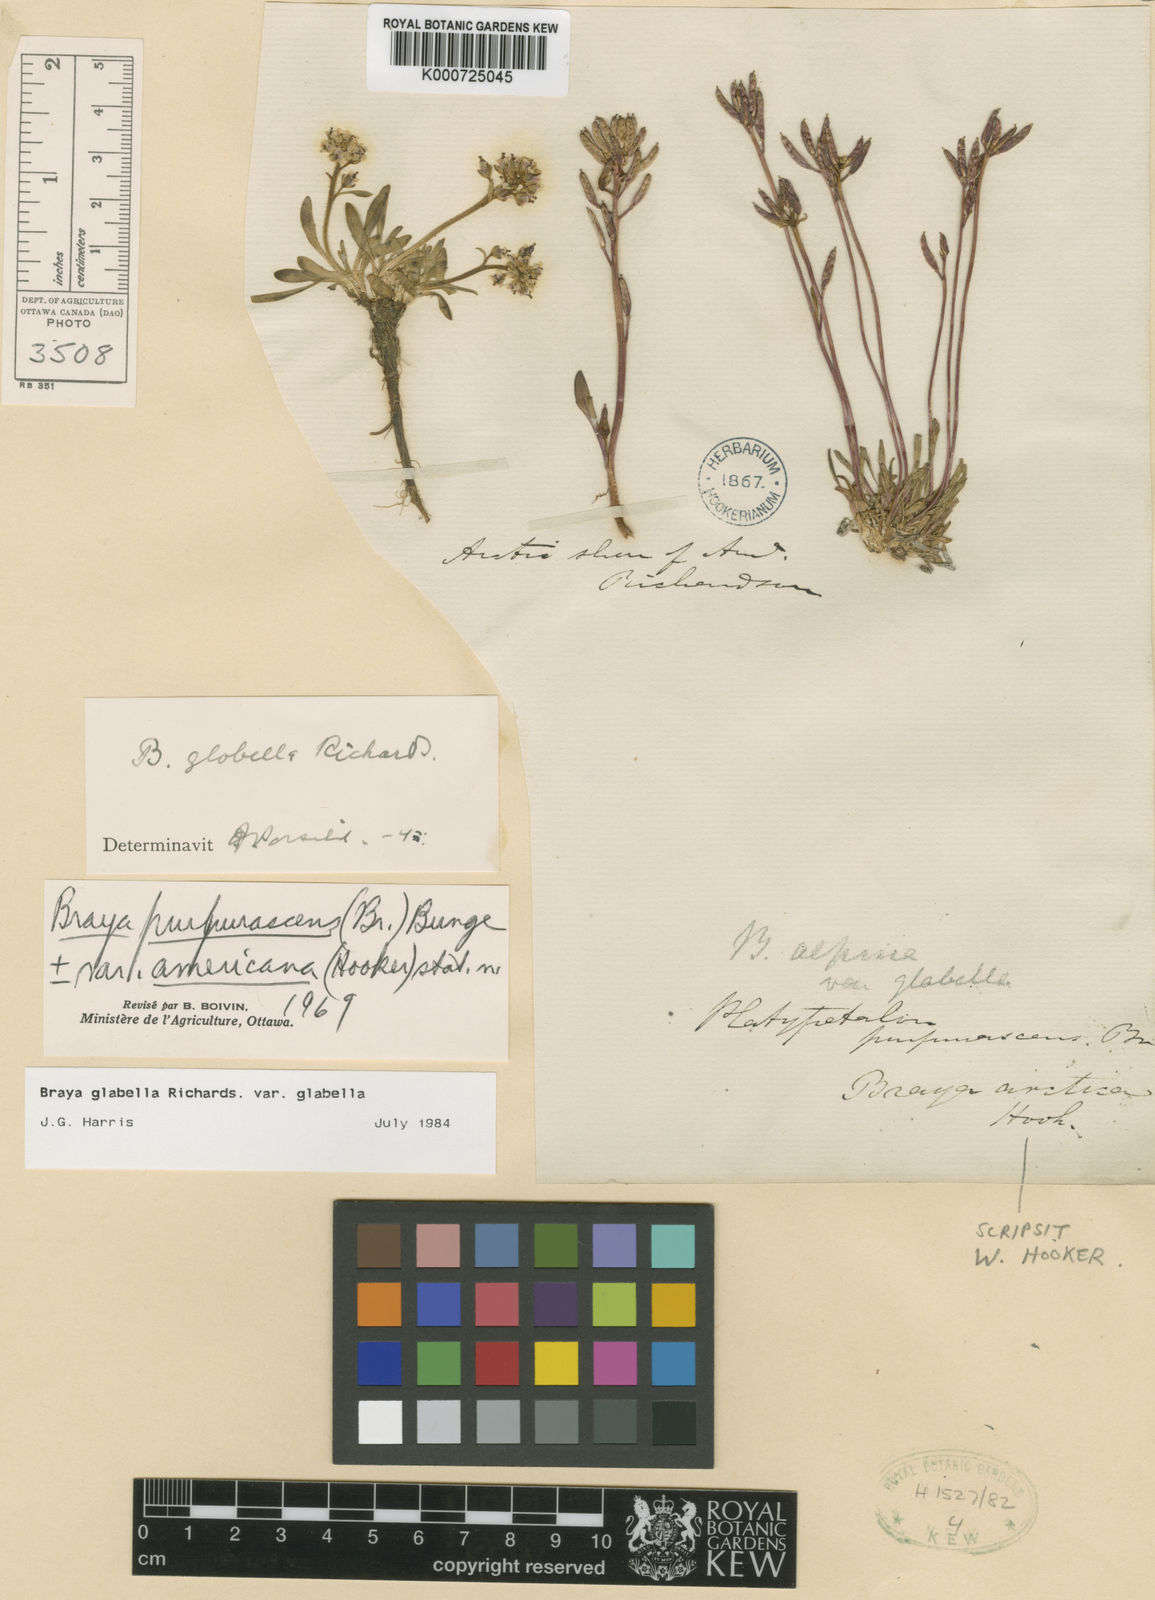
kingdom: Plantae
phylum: Tracheophyta
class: Magnoliopsida
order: Brassicales
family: Brassicaceae
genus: Braya
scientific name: Braya glabella
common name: Smooth braya
